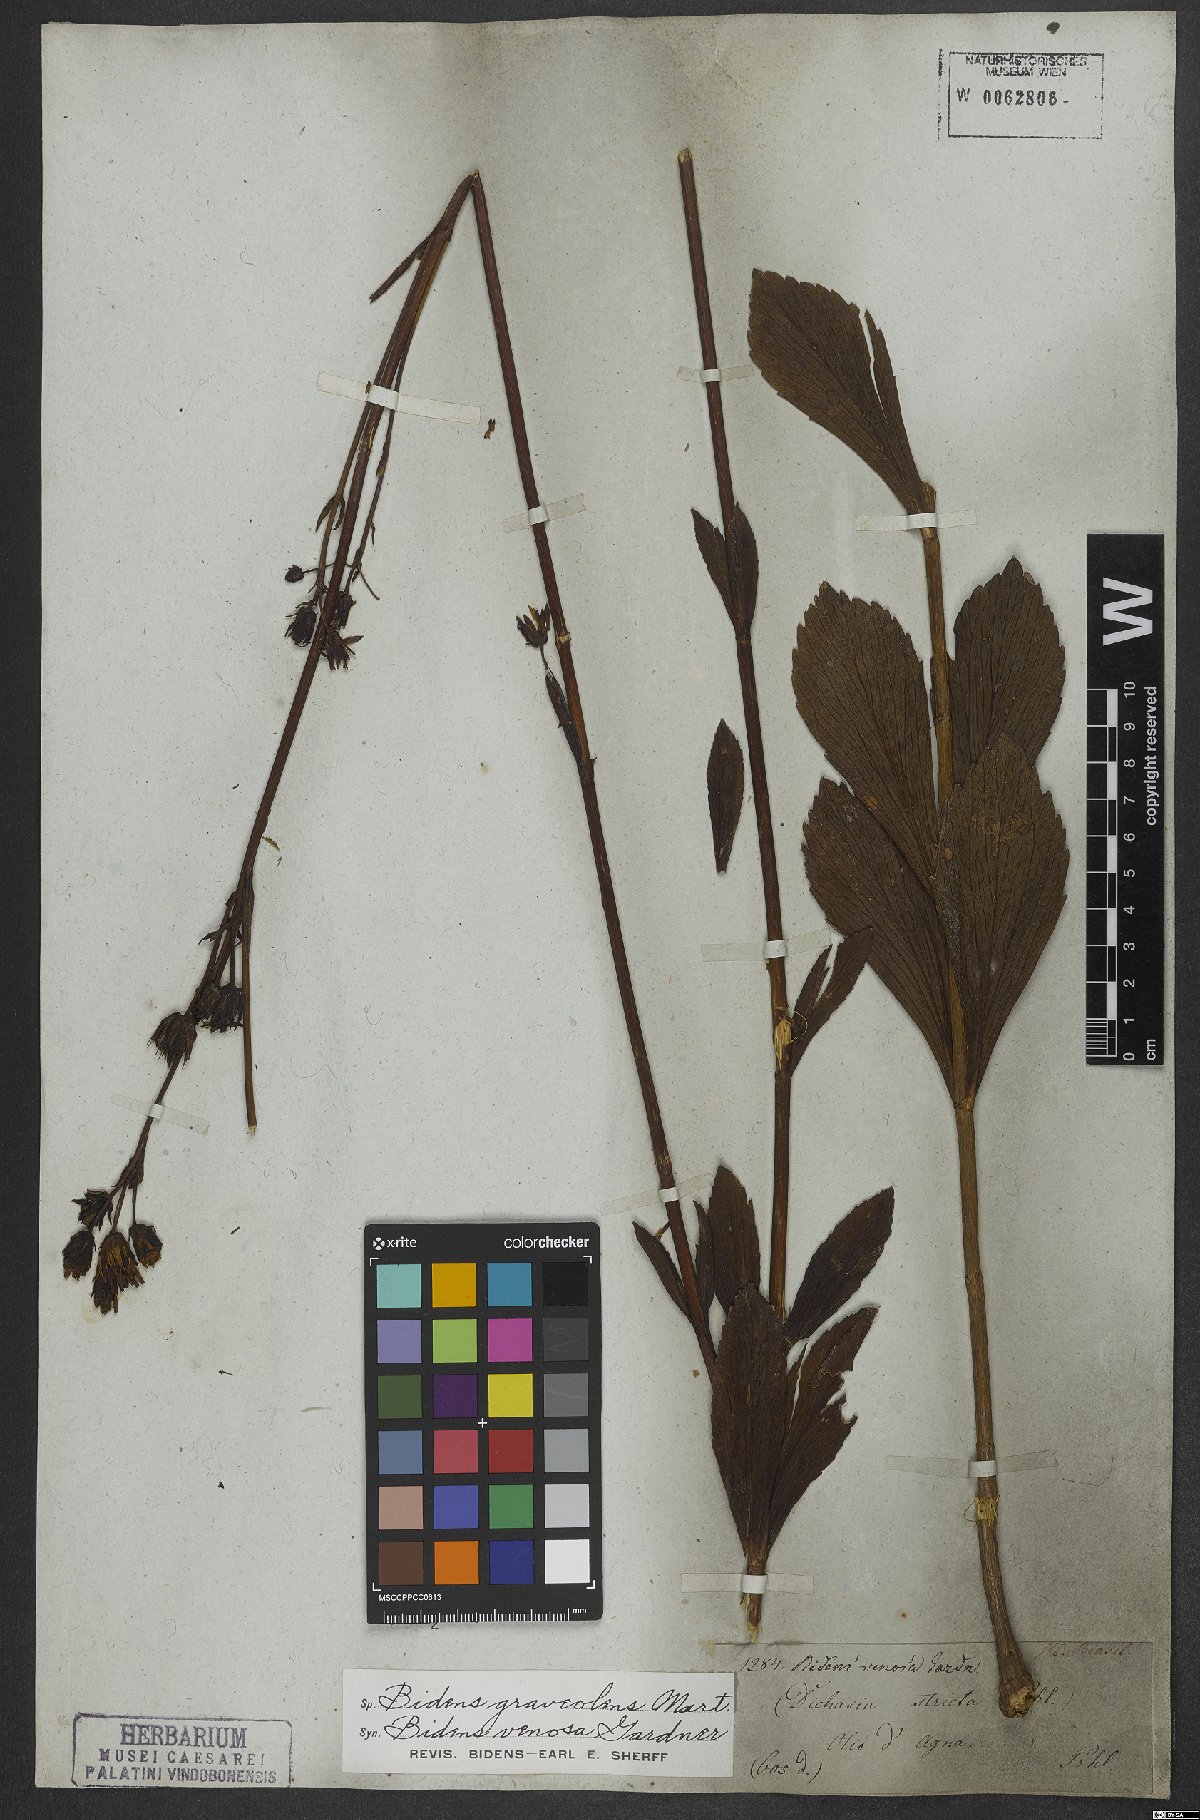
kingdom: Plantae
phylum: Tracheophyta
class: Magnoliopsida
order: Asterales
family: Asteraceae
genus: Bidens
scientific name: Bidens graveolens
